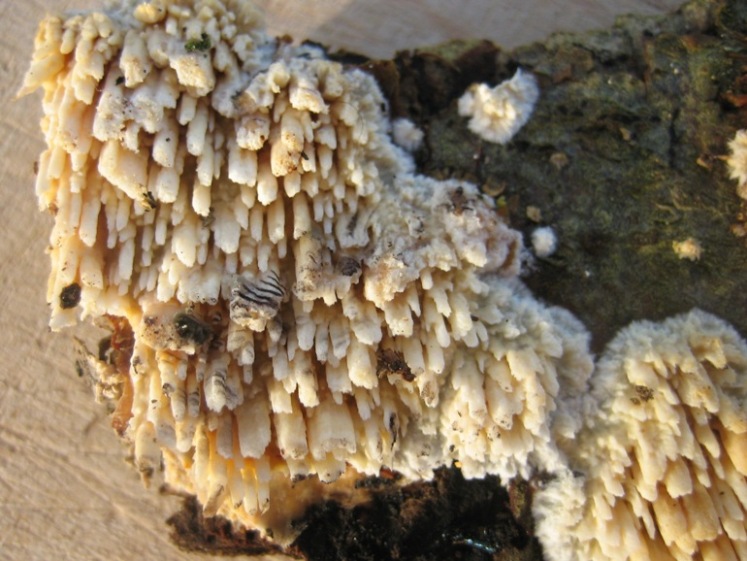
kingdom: Fungi
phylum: Basidiomycota
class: Agaricomycetes
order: Hymenochaetales
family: Schizoporaceae
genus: Xylodon
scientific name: Xylodon radula
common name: grovtandet kalkskind
